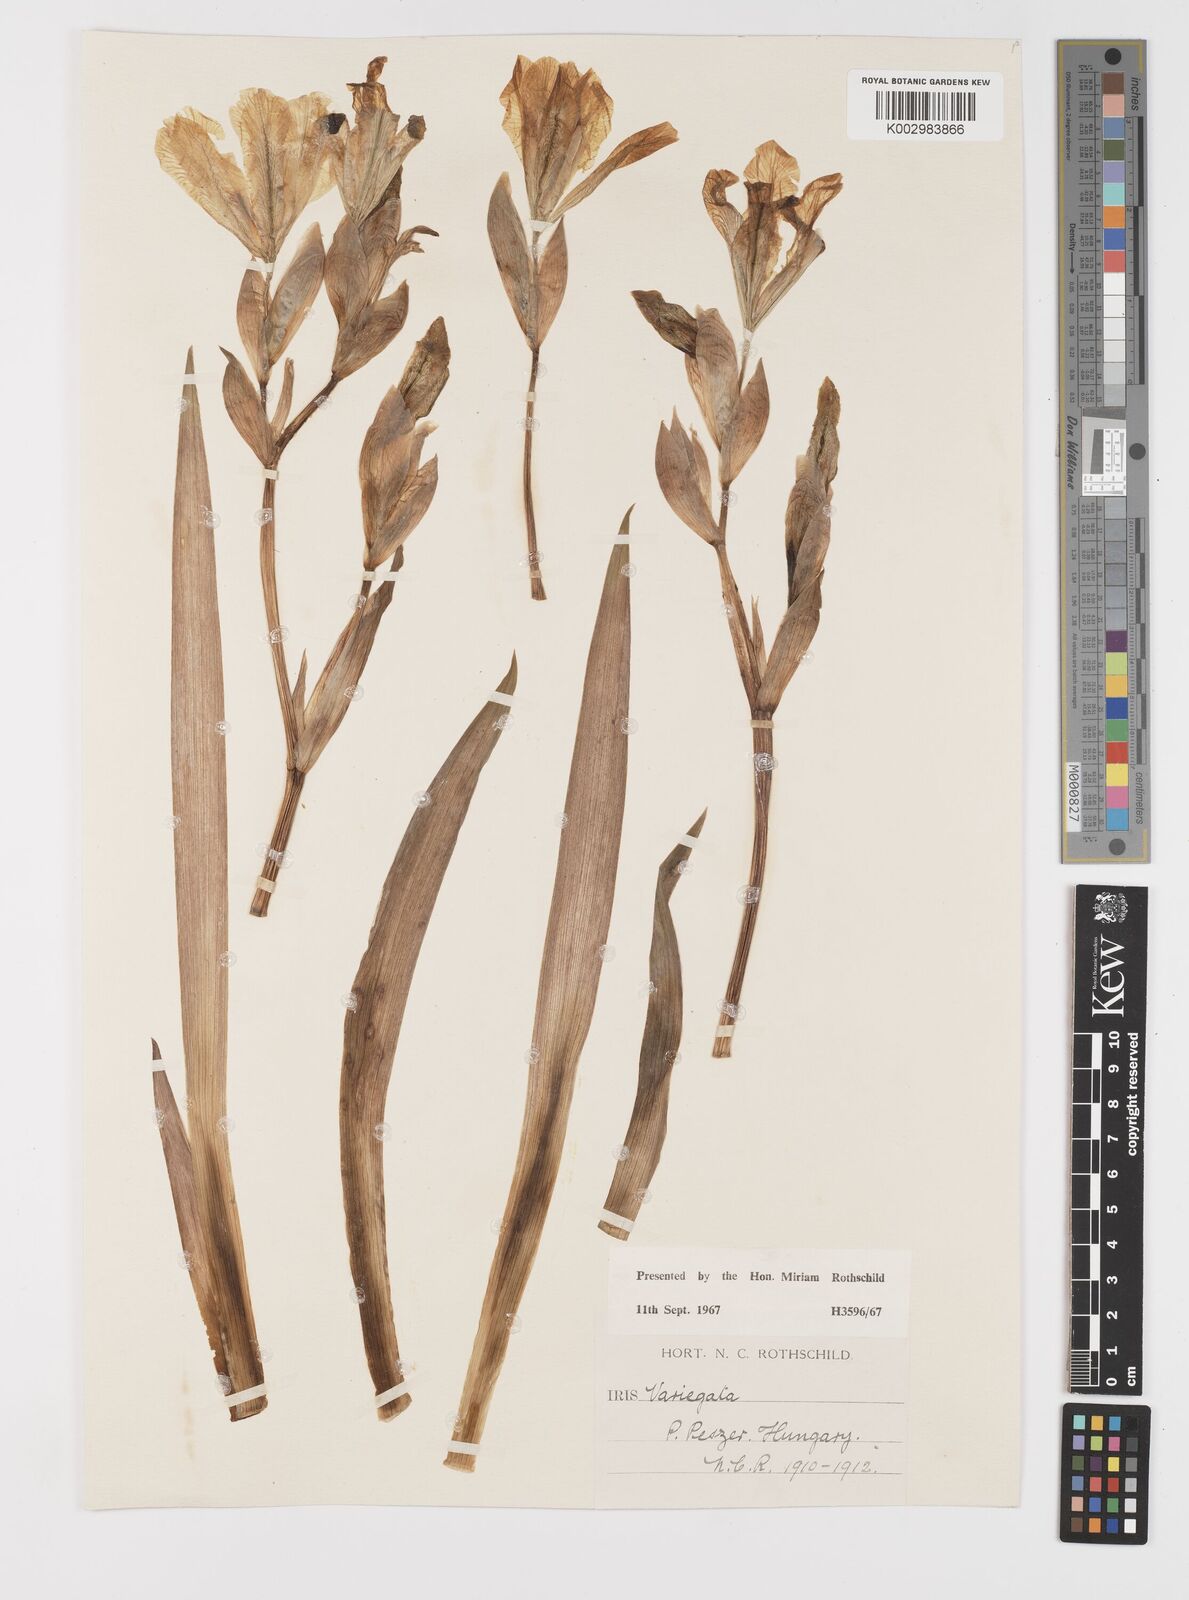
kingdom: Plantae
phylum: Tracheophyta
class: Liliopsida
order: Asparagales
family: Iridaceae
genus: Iris
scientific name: Iris variegata
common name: Hungarian iris
